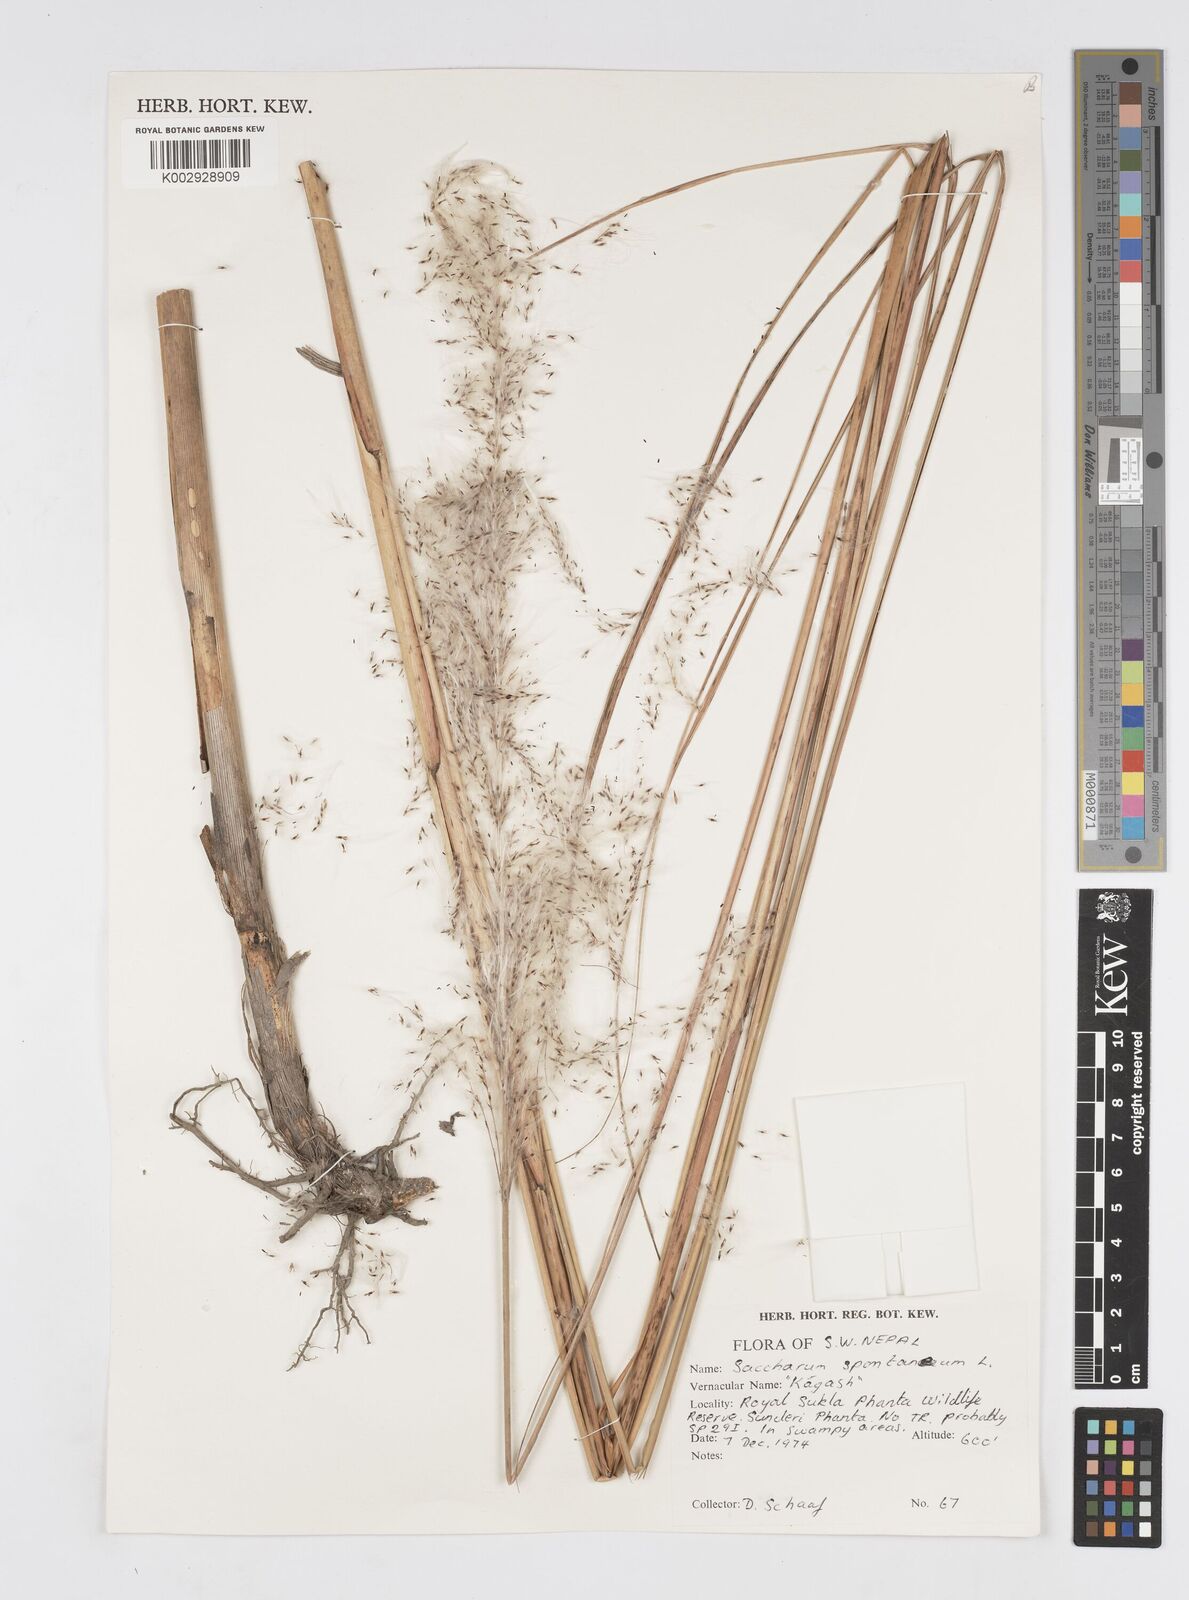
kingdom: Plantae
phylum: Tracheophyta
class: Liliopsida
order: Poales
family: Poaceae
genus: Saccharum
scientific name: Saccharum spontaneum
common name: Wild sugarcane
